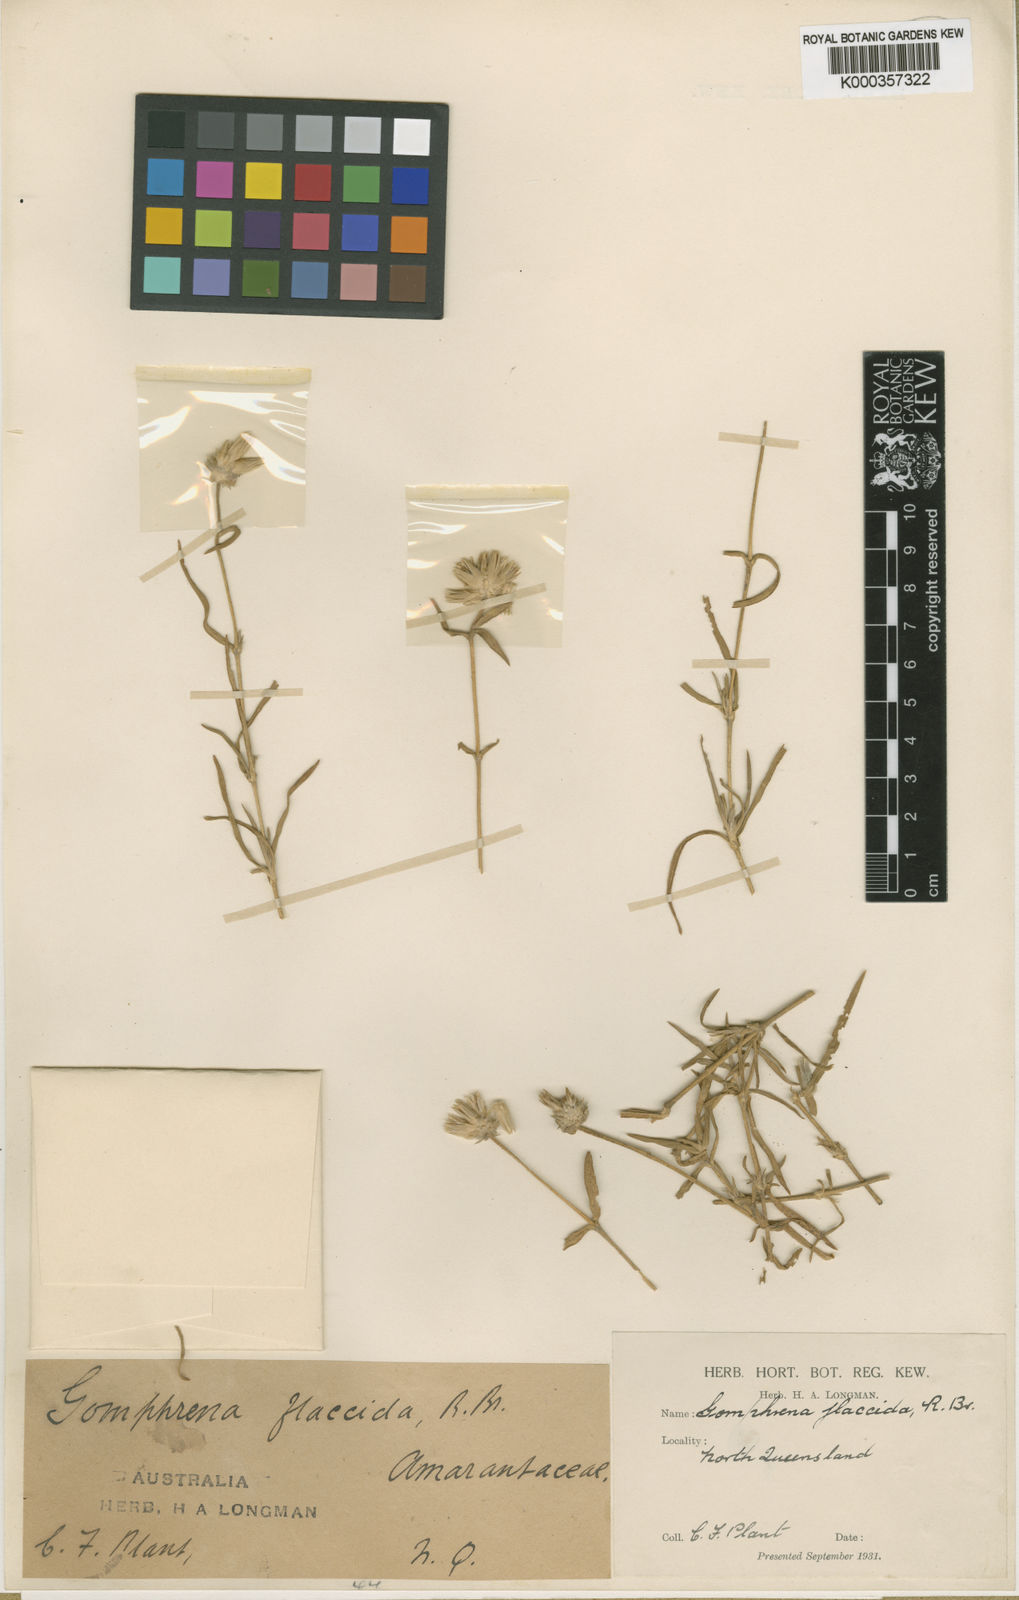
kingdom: Plantae
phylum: Tracheophyta
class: Magnoliopsida
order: Caryophyllales
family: Amaranthaceae
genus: Gomphrena
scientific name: Gomphrena flaccida
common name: Gomphrena-weed
